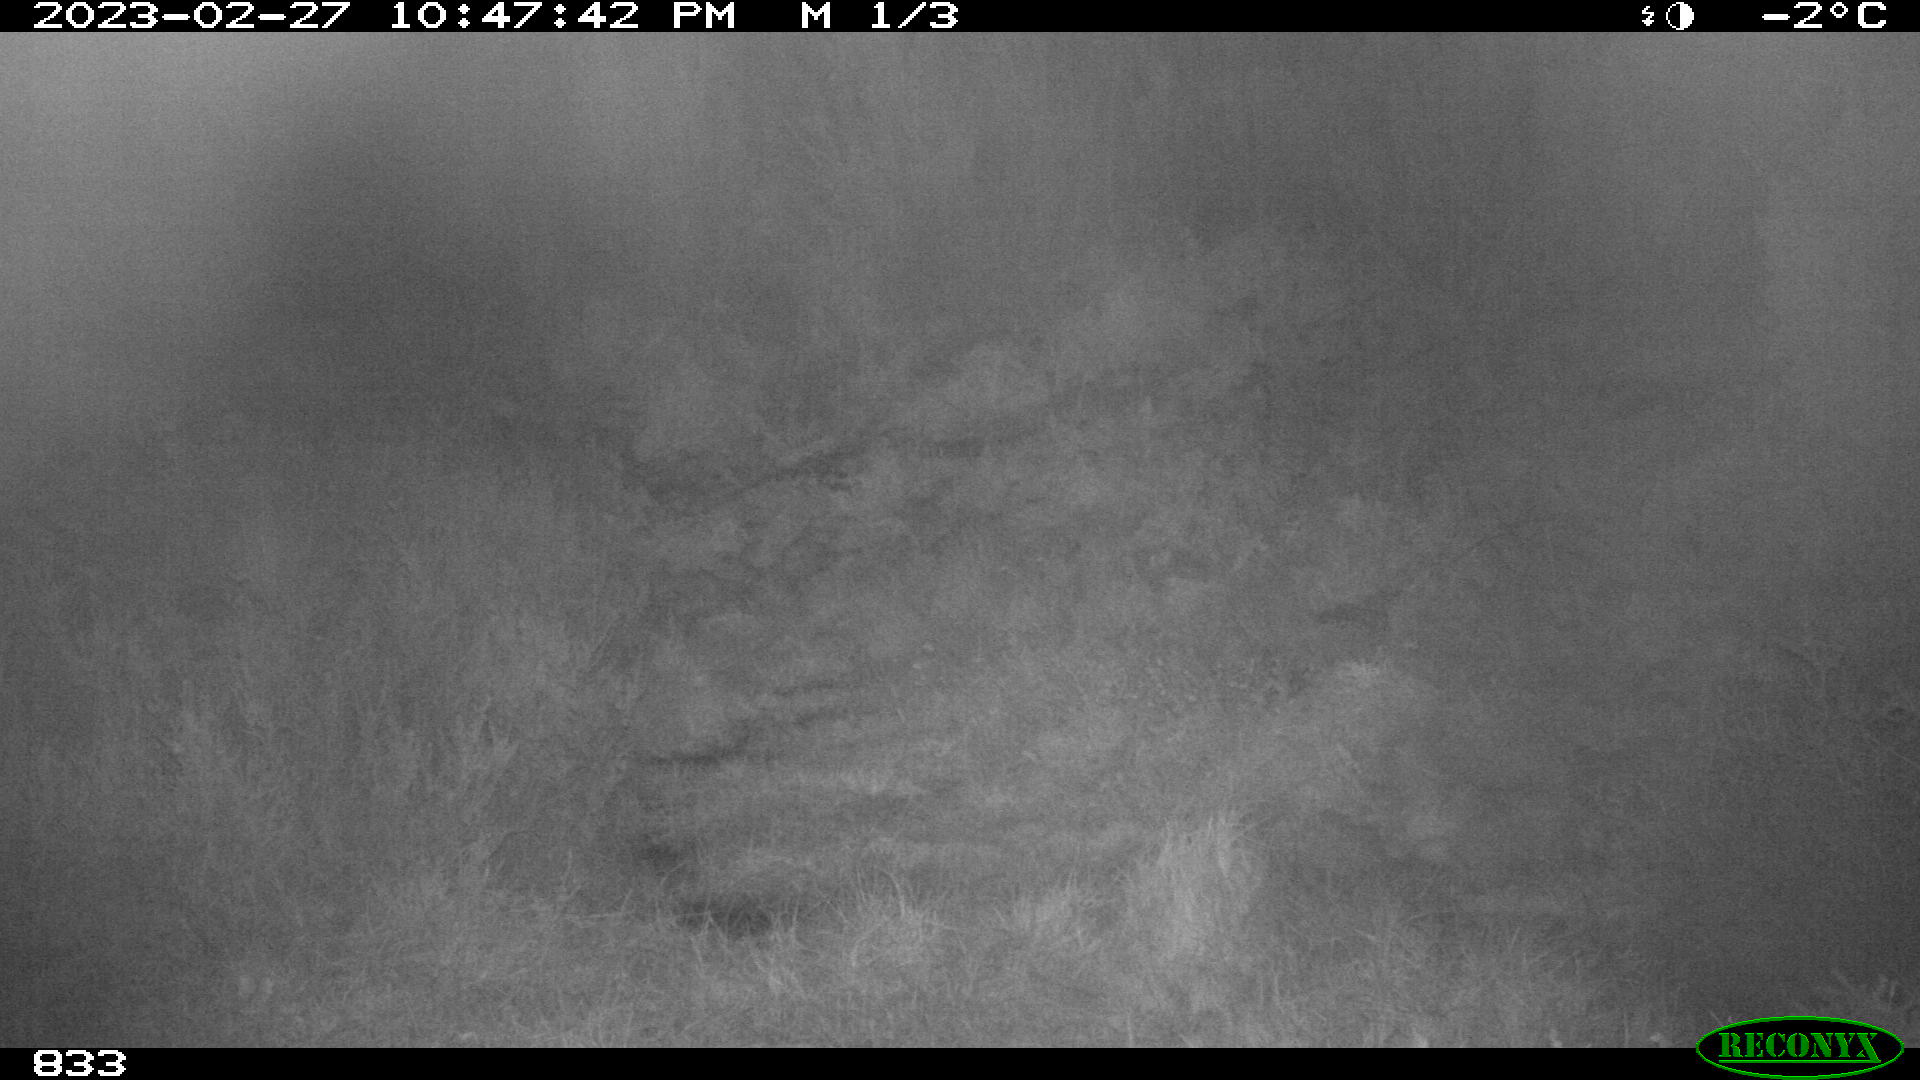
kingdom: Animalia
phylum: Chordata
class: Mammalia
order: Perissodactyla
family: Equidae
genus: Equus
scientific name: Equus caballus
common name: Horse
